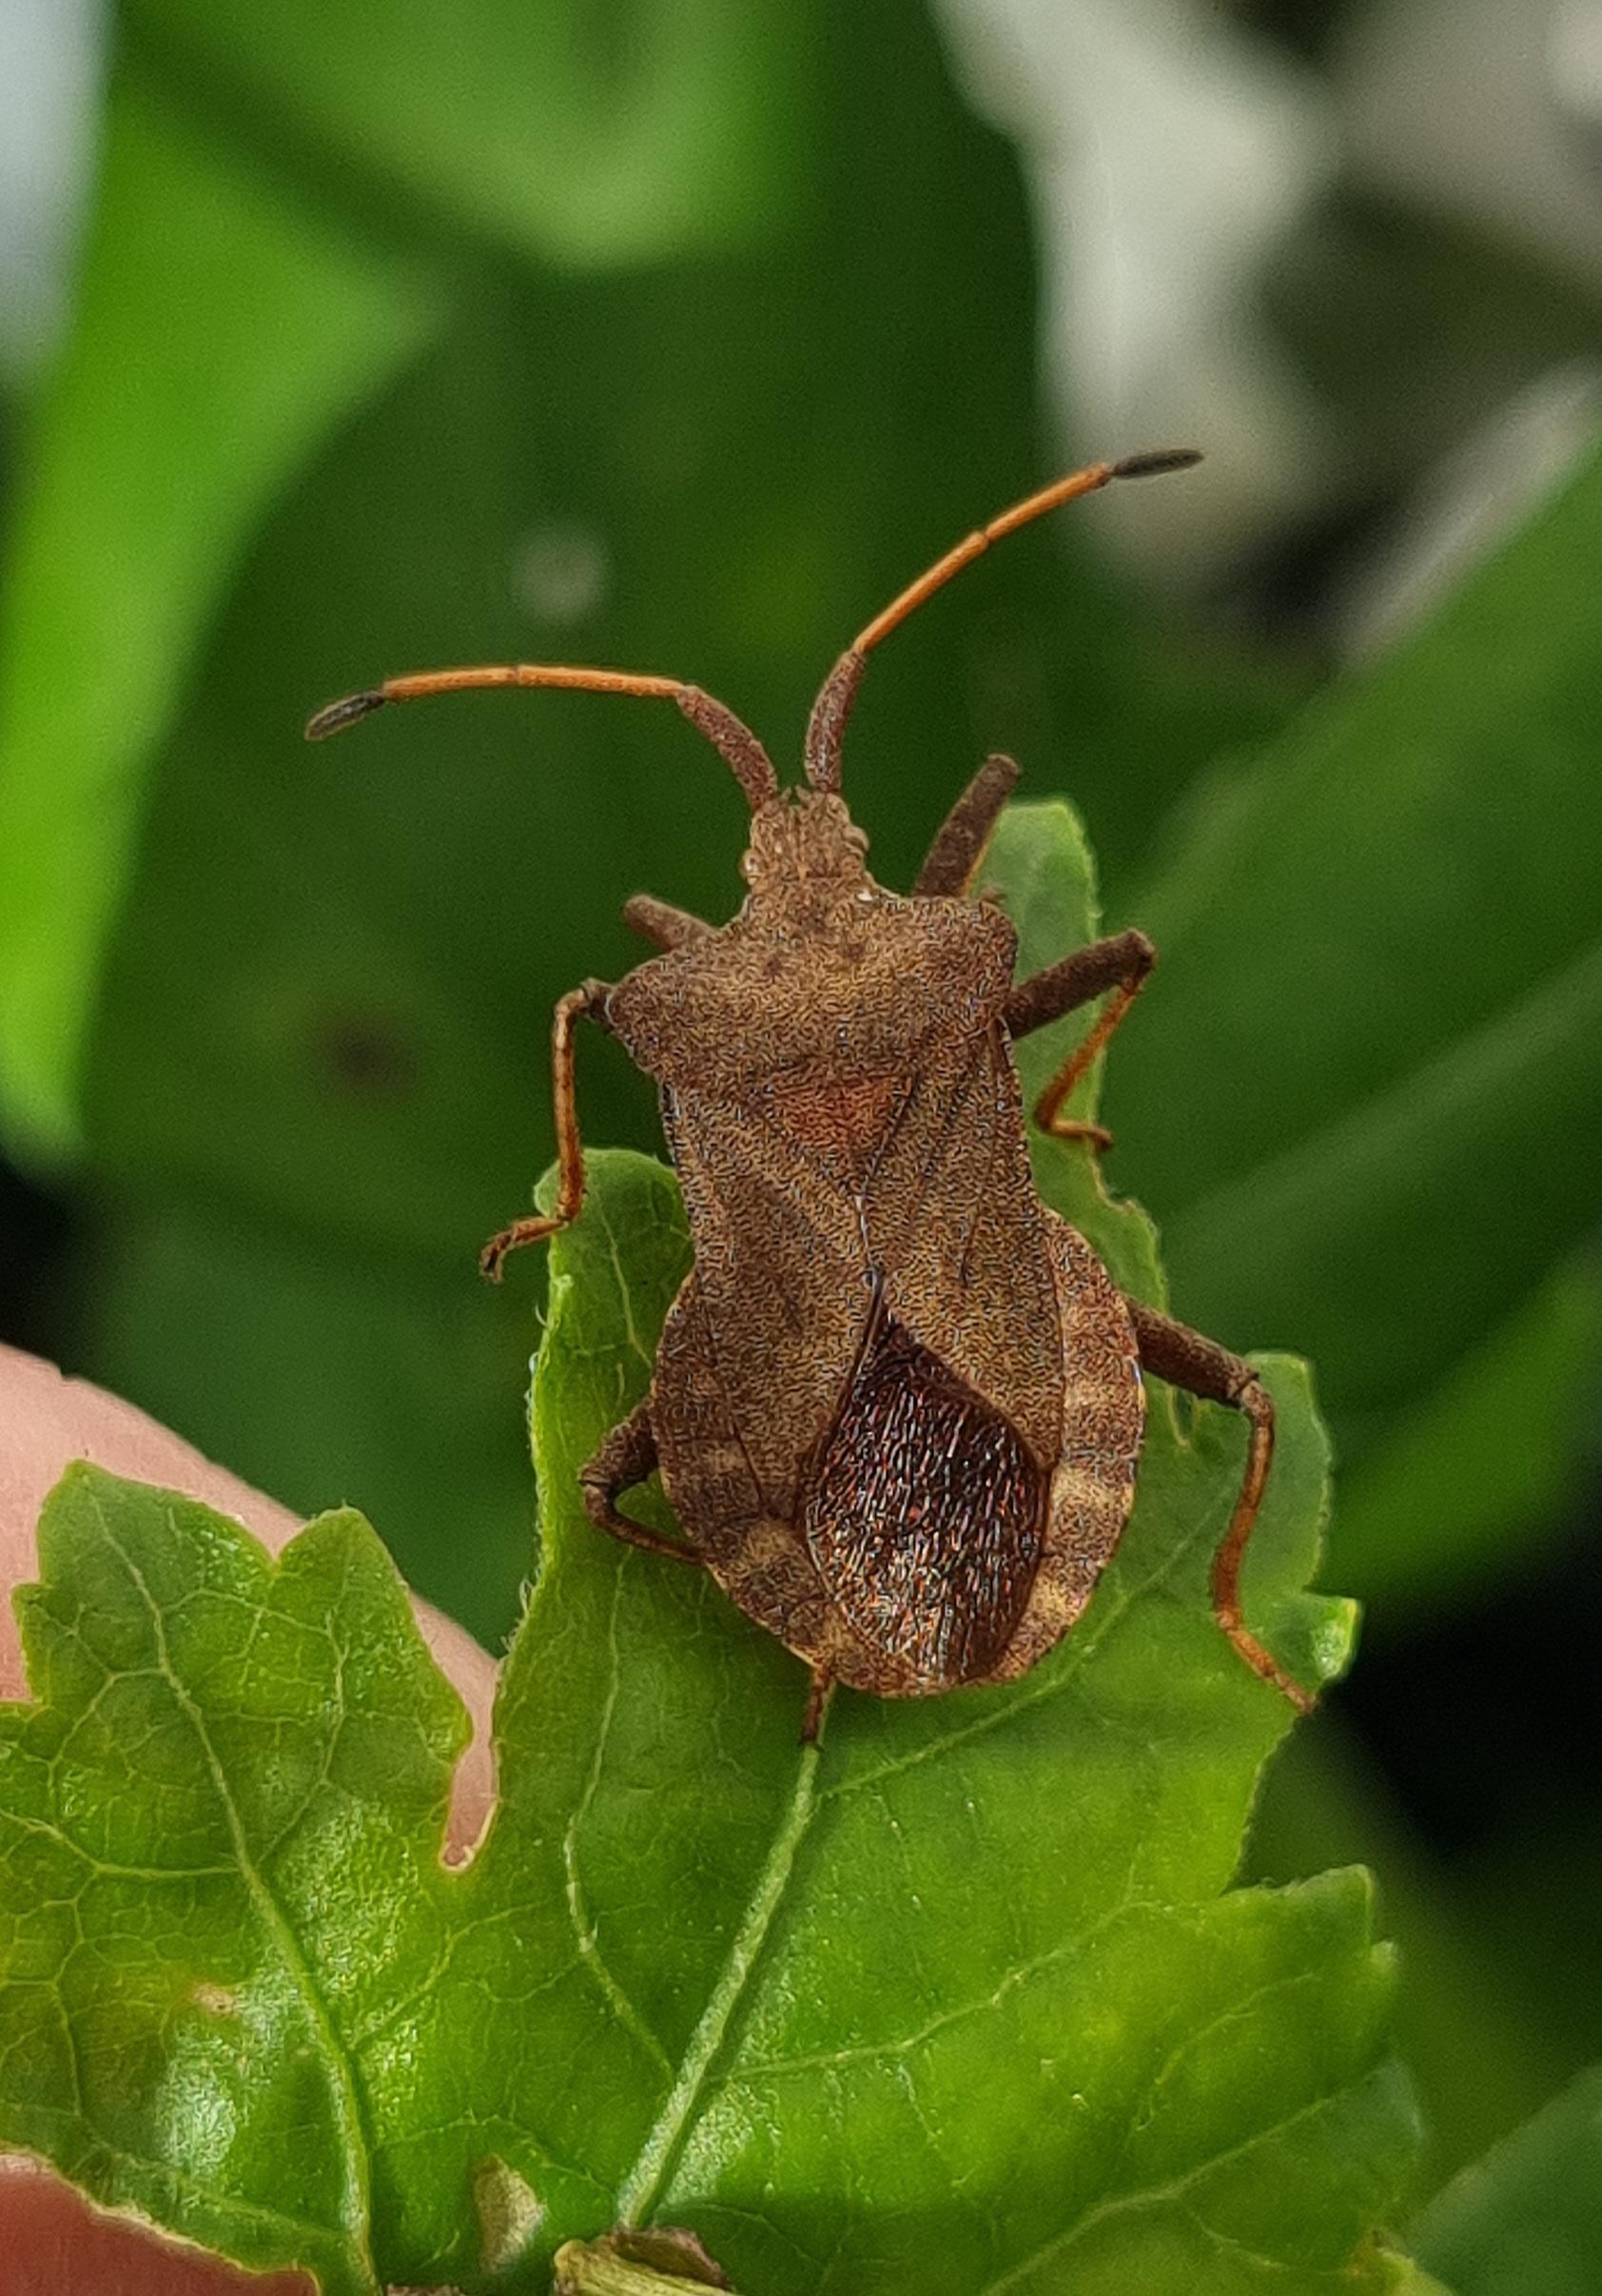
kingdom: Animalia
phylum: Arthropoda
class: Insecta
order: Hemiptera
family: Coreidae
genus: Coreus
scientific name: Coreus marginatus
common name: Skræppetæge
